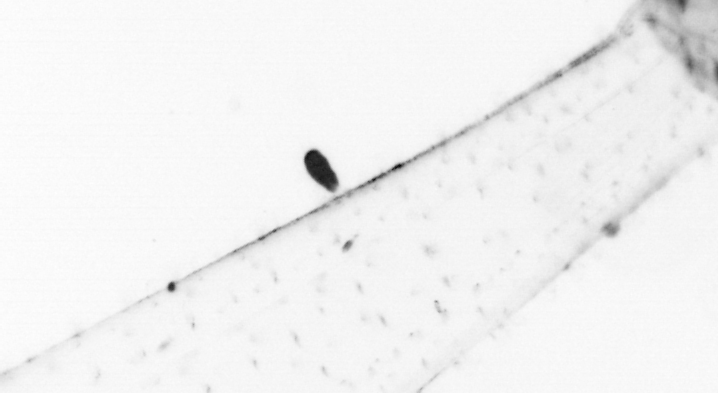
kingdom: Animalia
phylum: Chaetognatha
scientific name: Chaetognatha
